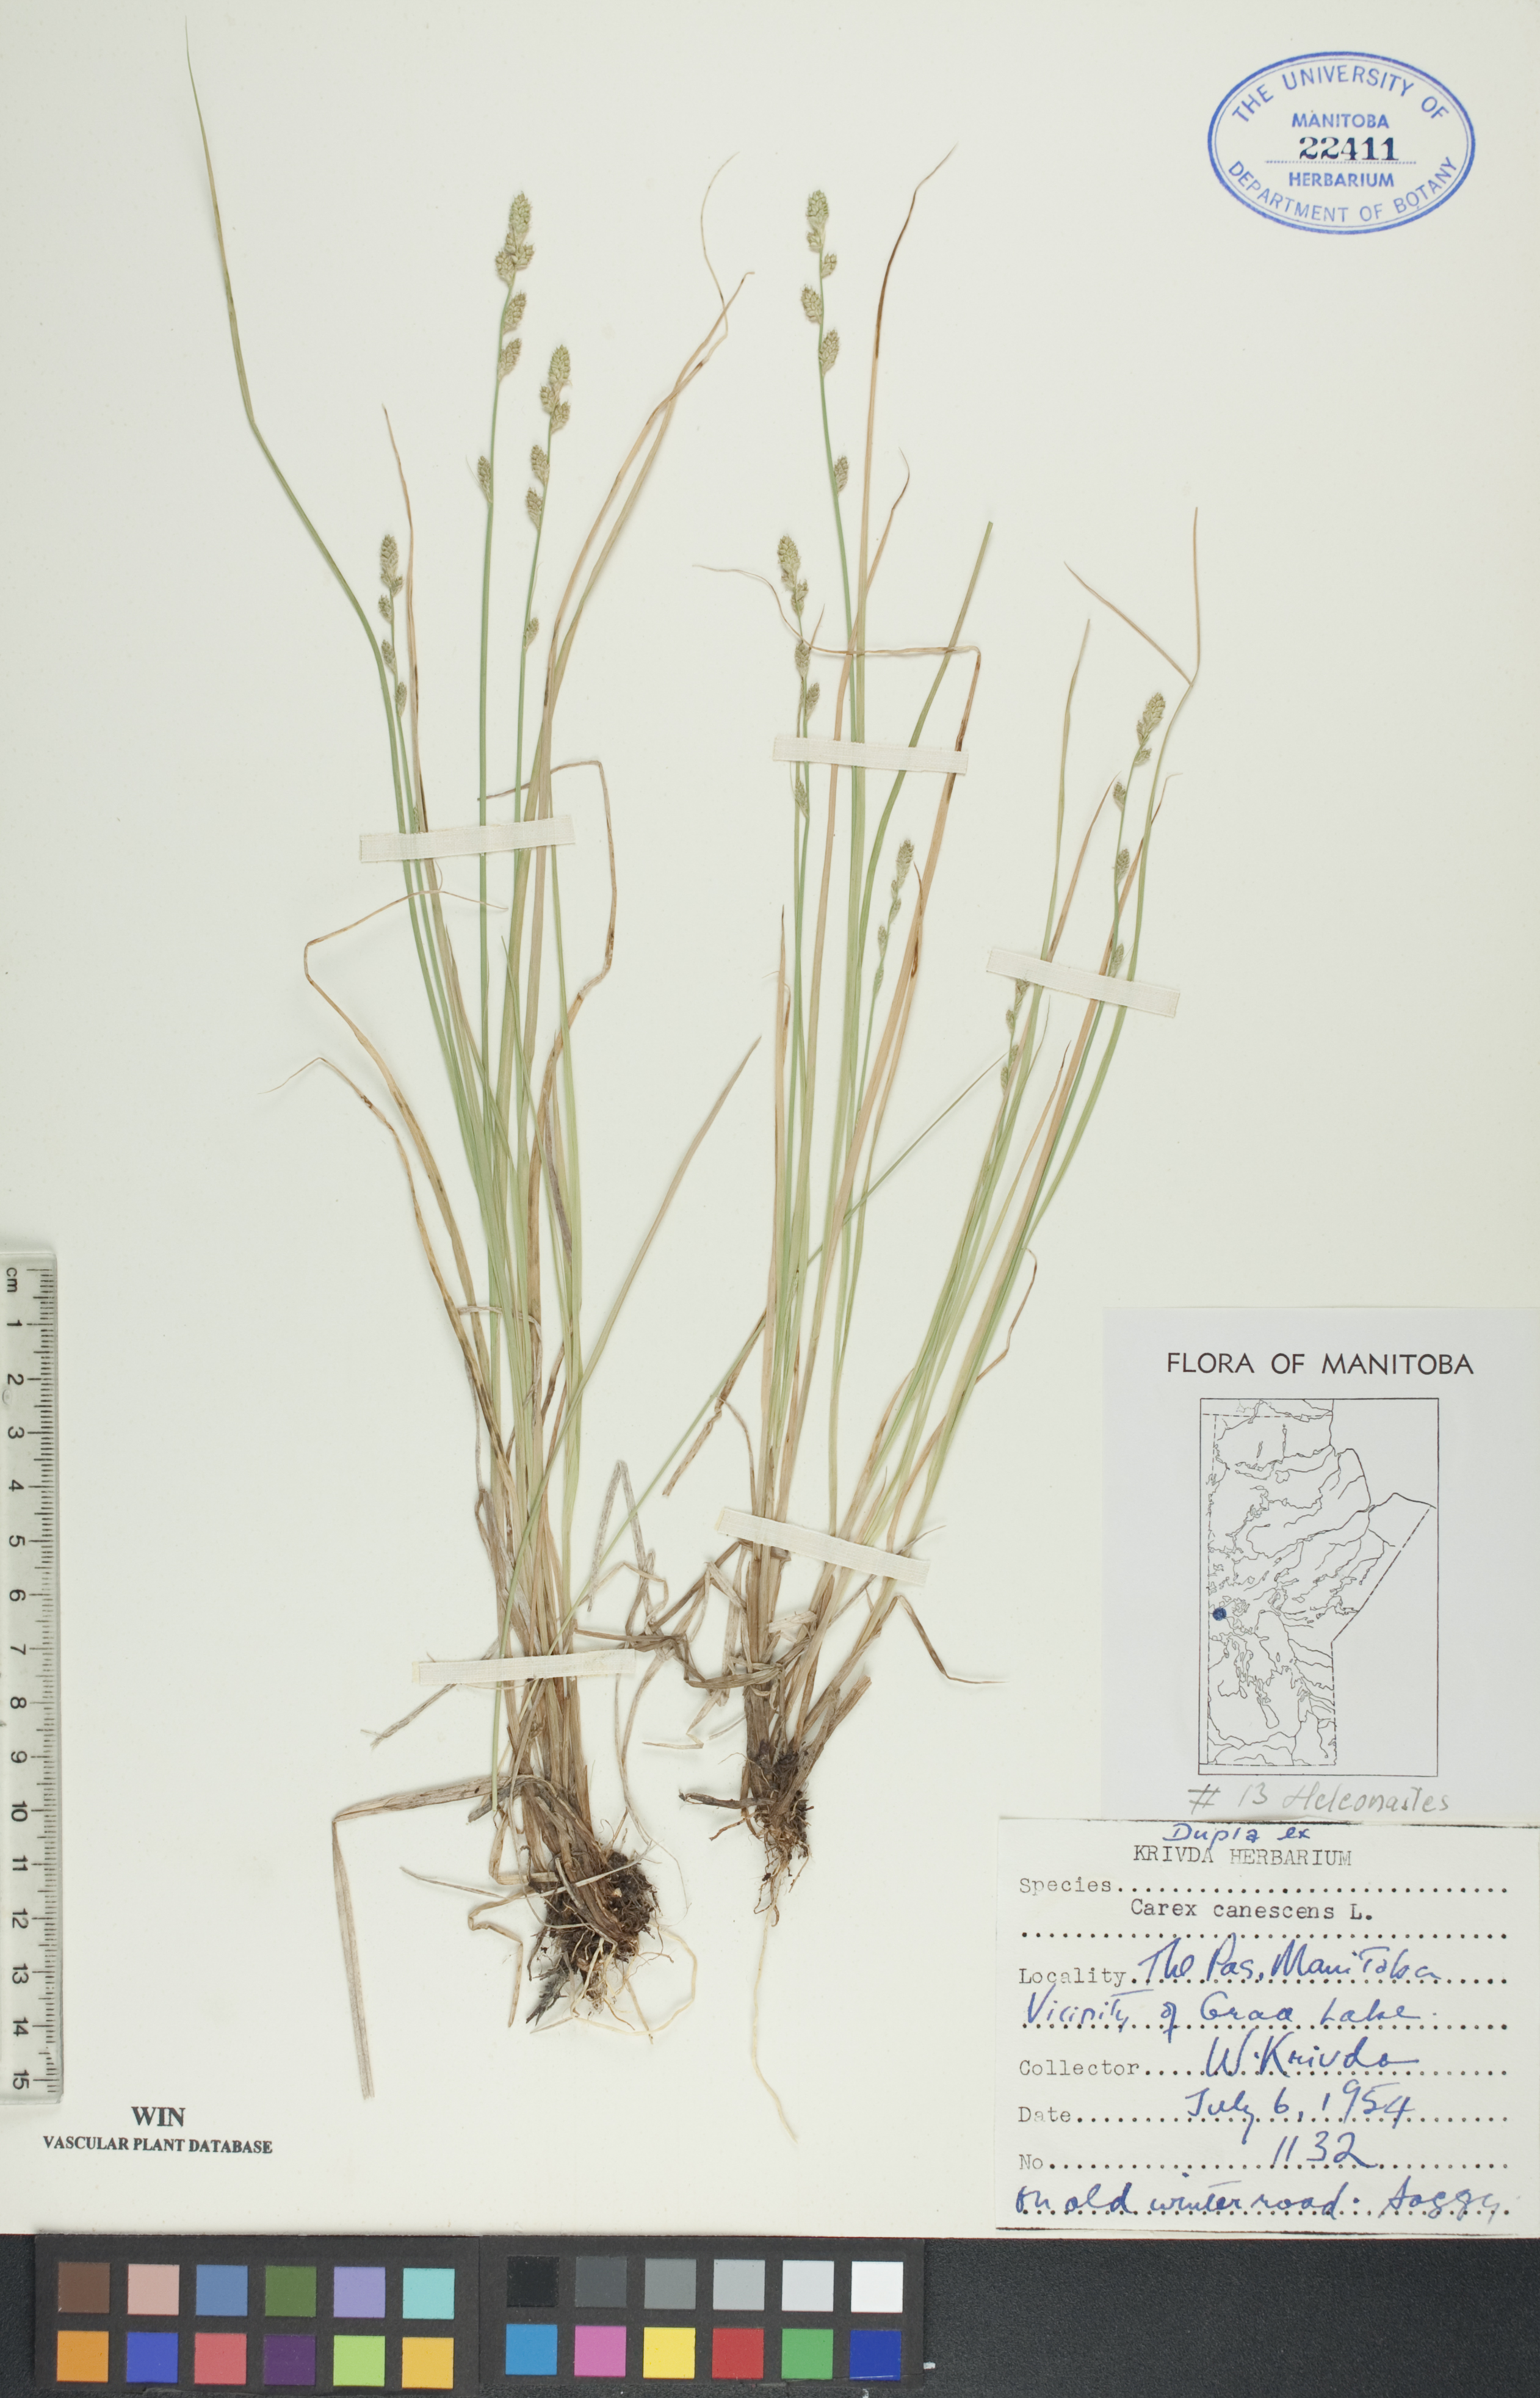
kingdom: Plantae
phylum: Tracheophyta
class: Liliopsida
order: Poales
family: Cyperaceae
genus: Carex
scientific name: Carex canescens
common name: White sedge
